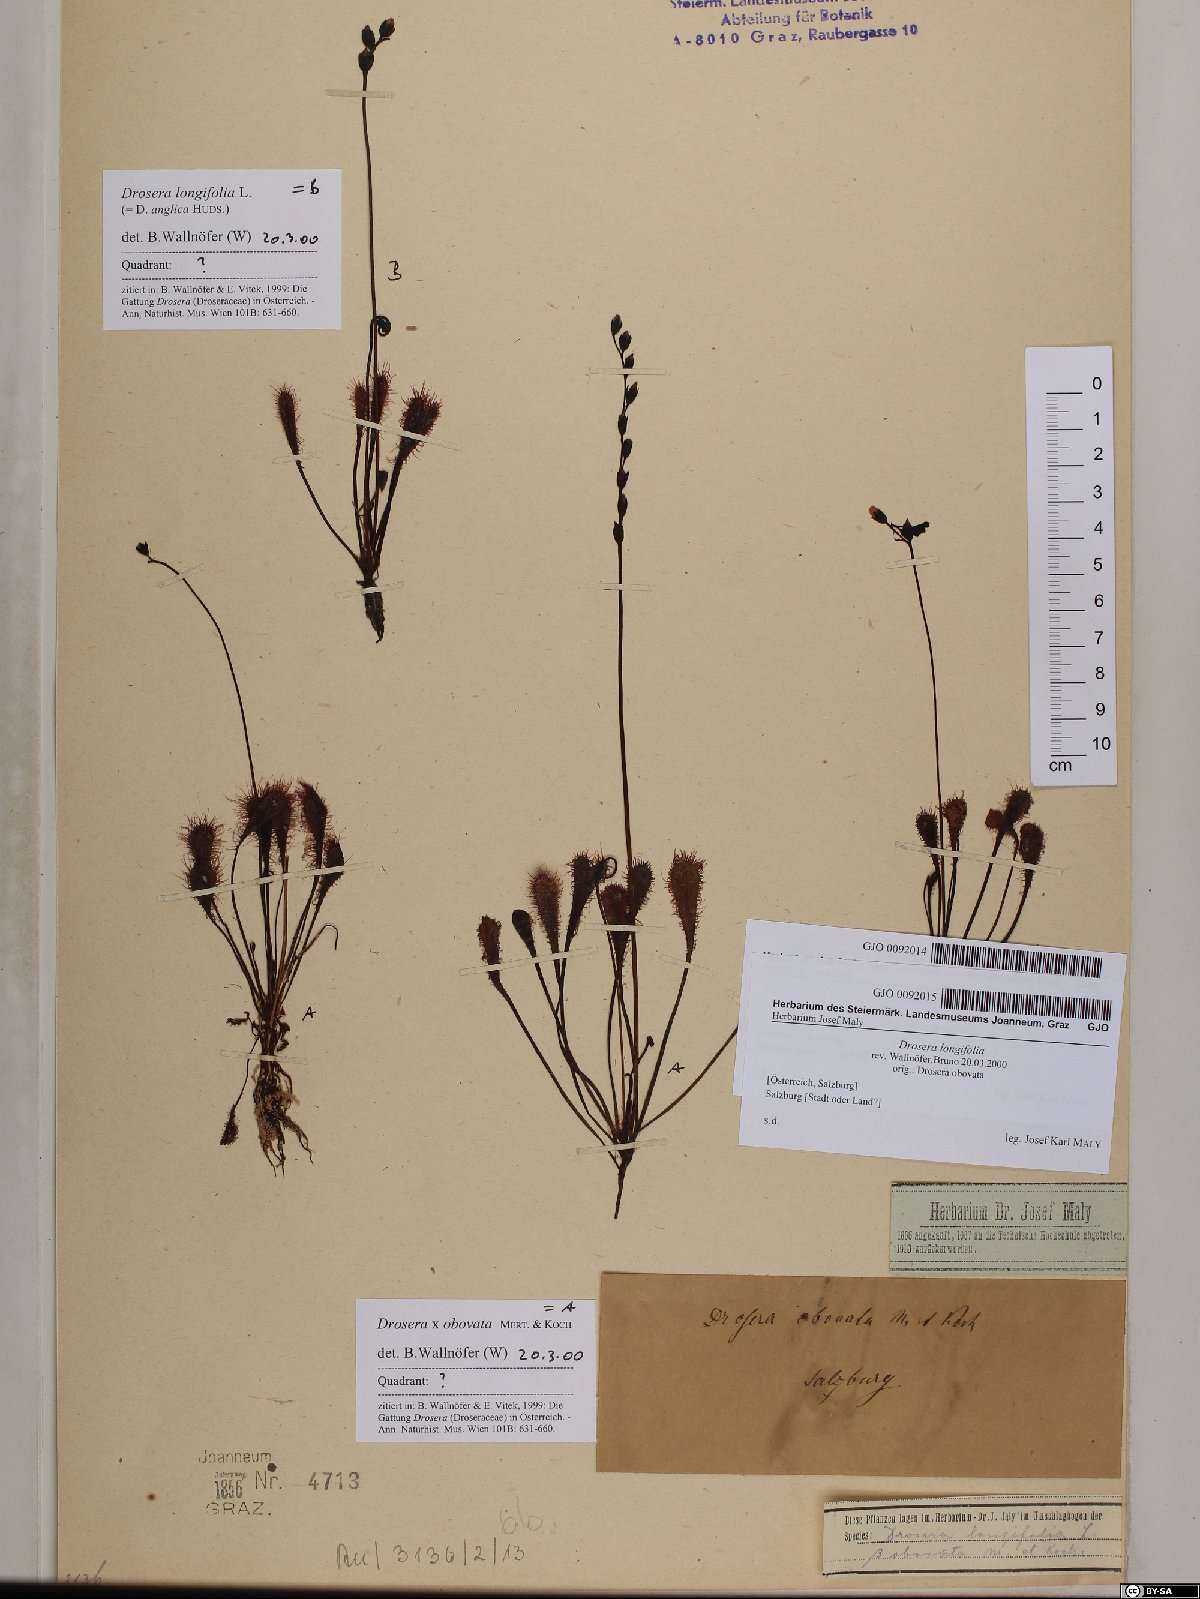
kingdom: Plantae
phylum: Tracheophyta
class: Magnoliopsida
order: Caryophyllales
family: Droseraceae
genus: Drosera
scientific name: Drosera anglica
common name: Great sundew
